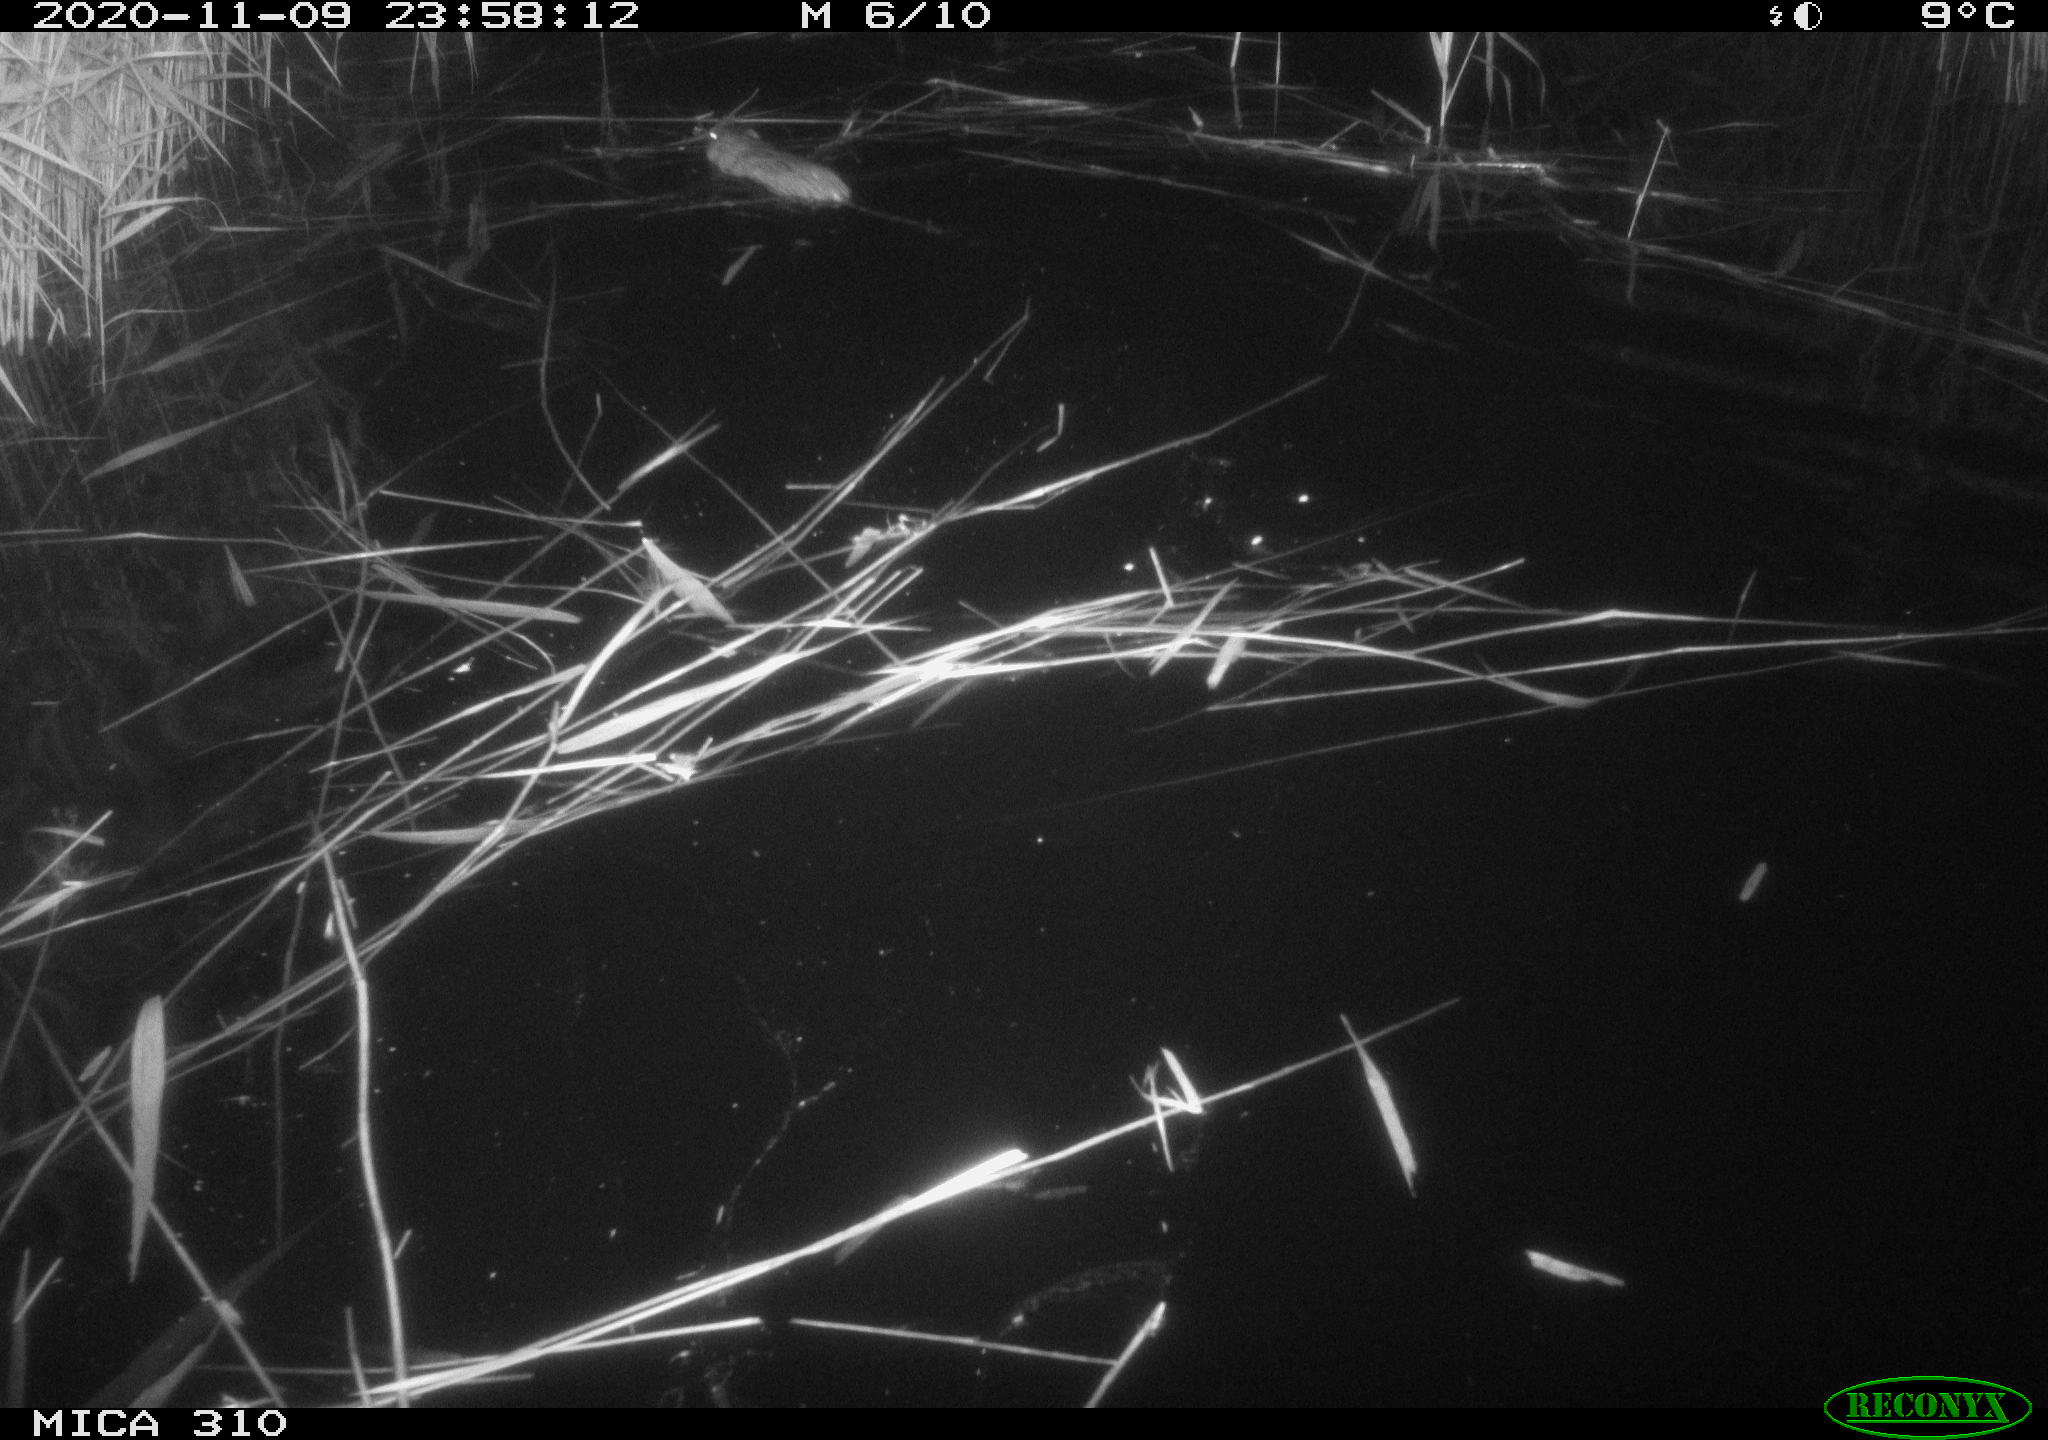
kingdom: Animalia
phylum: Chordata
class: Mammalia
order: Rodentia
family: Cricetidae
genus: Ondatra
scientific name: Ondatra zibethicus
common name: Muskrat
